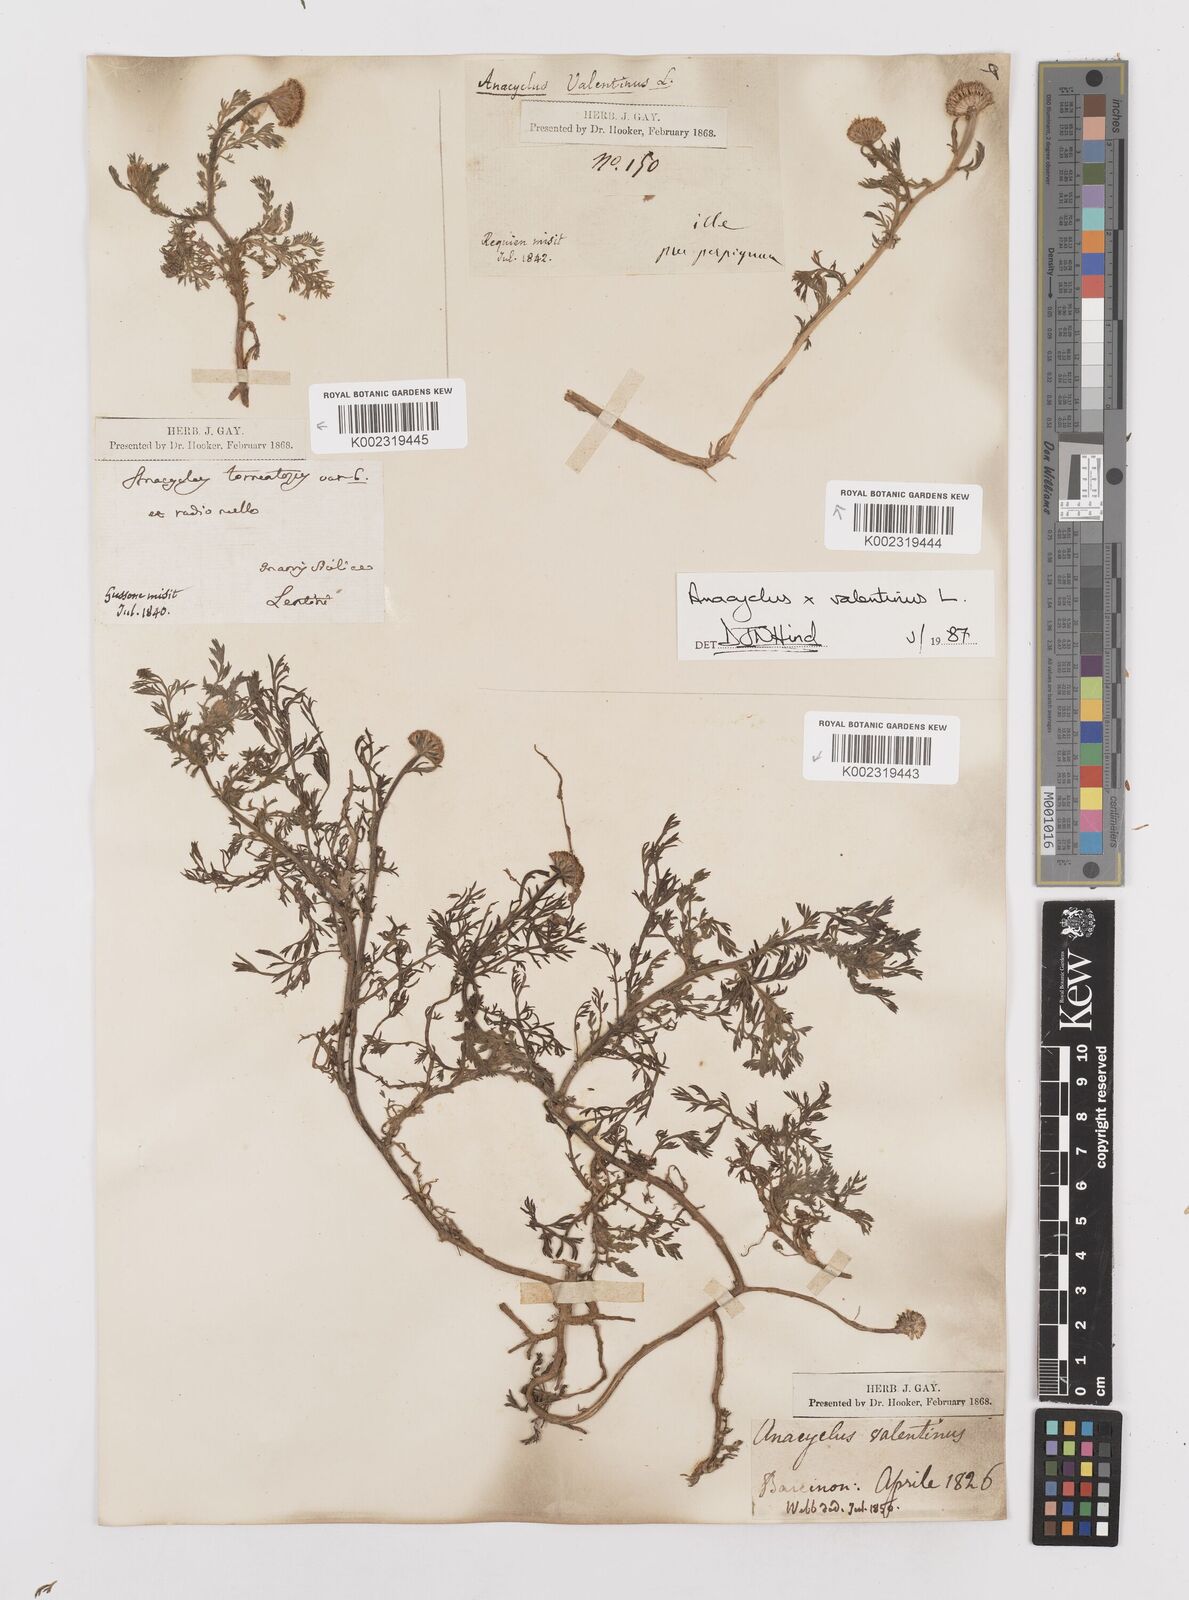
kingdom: Plantae
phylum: Tracheophyta
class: Magnoliopsida
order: Asterales
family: Asteraceae
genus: Anacyclus
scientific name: Anacyclus valentinus
